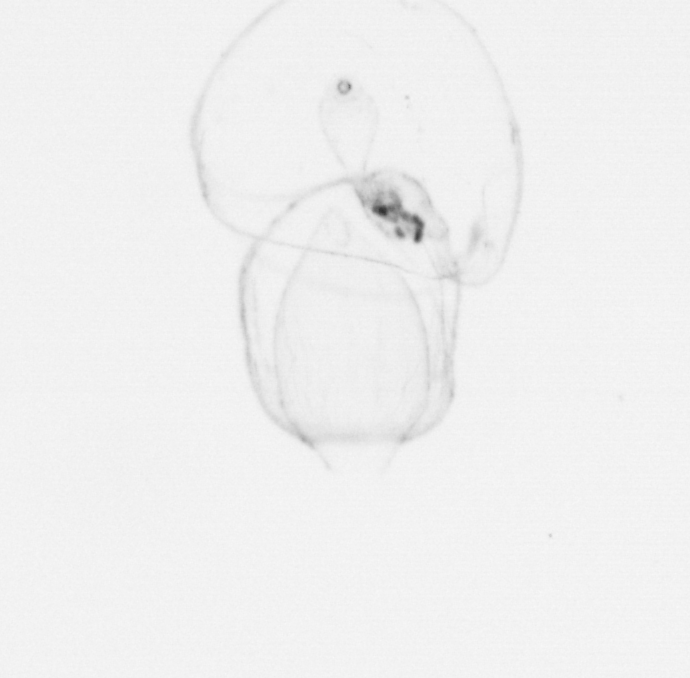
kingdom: Animalia
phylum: Chordata
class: Thaliacea
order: Salpida
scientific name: Salpida
